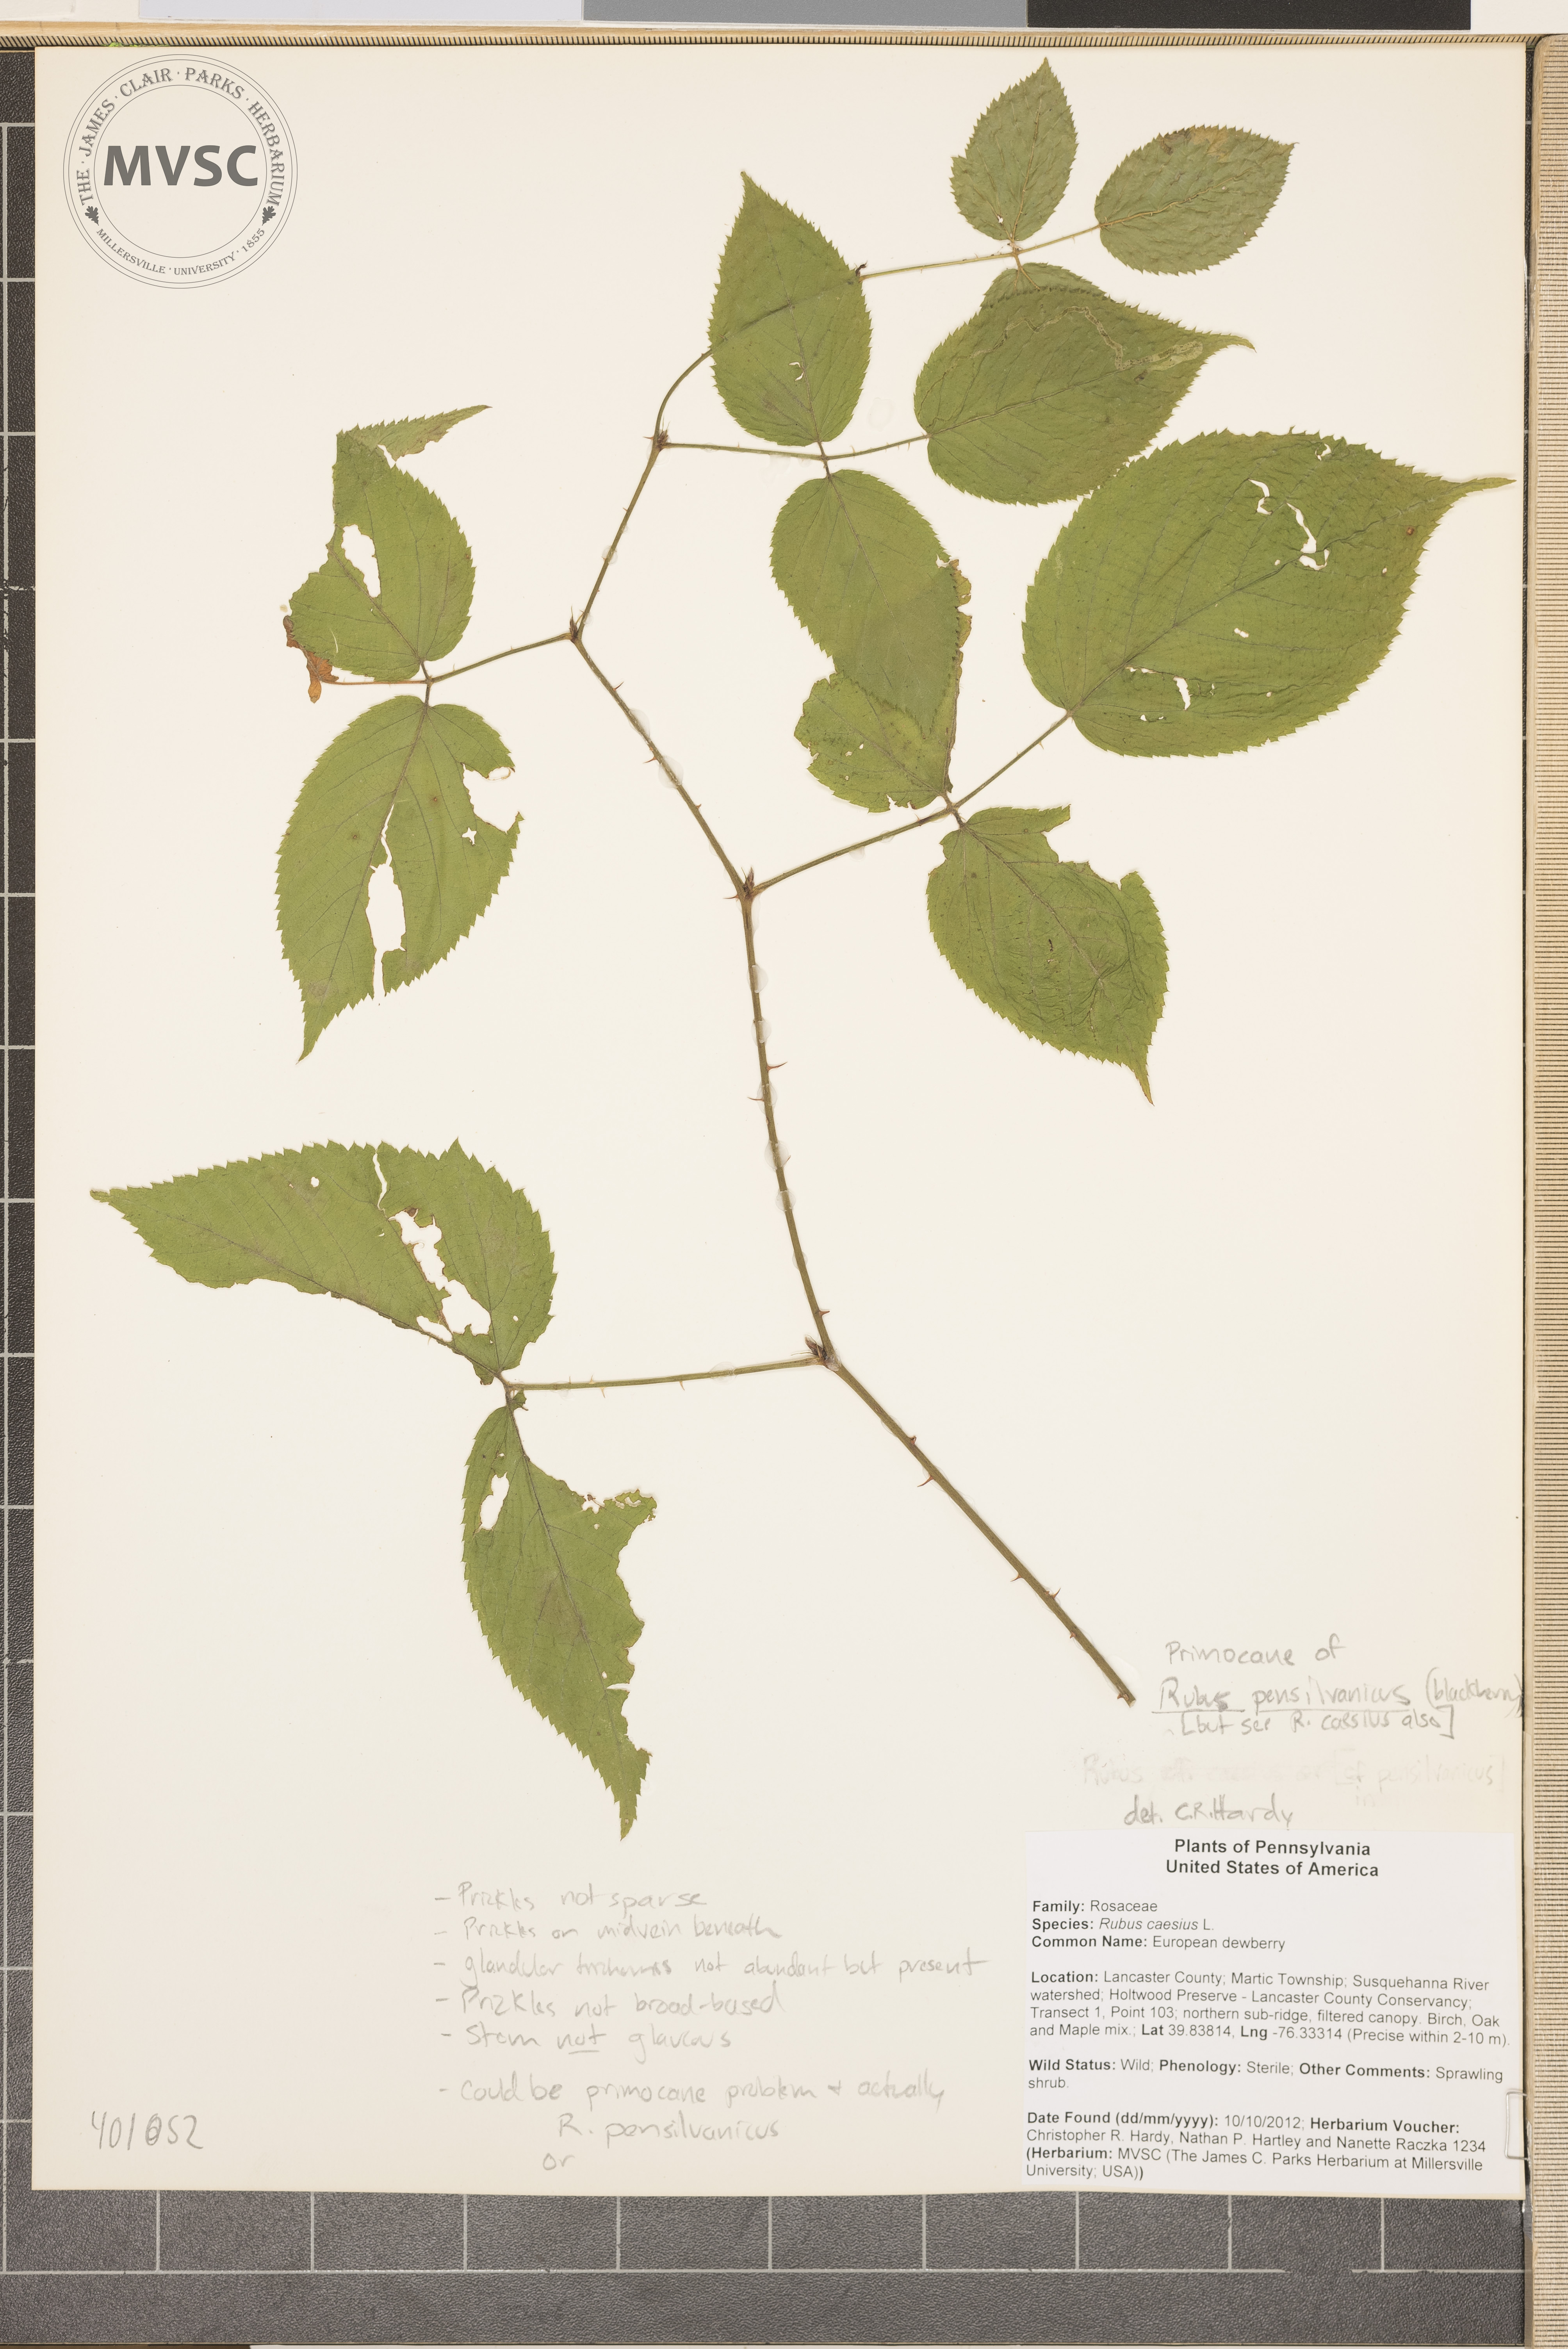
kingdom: Plantae
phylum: Tracheophyta
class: Magnoliopsida
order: Rosales
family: Rosaceae
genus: Rubus
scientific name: Rubus pensilvanicus
